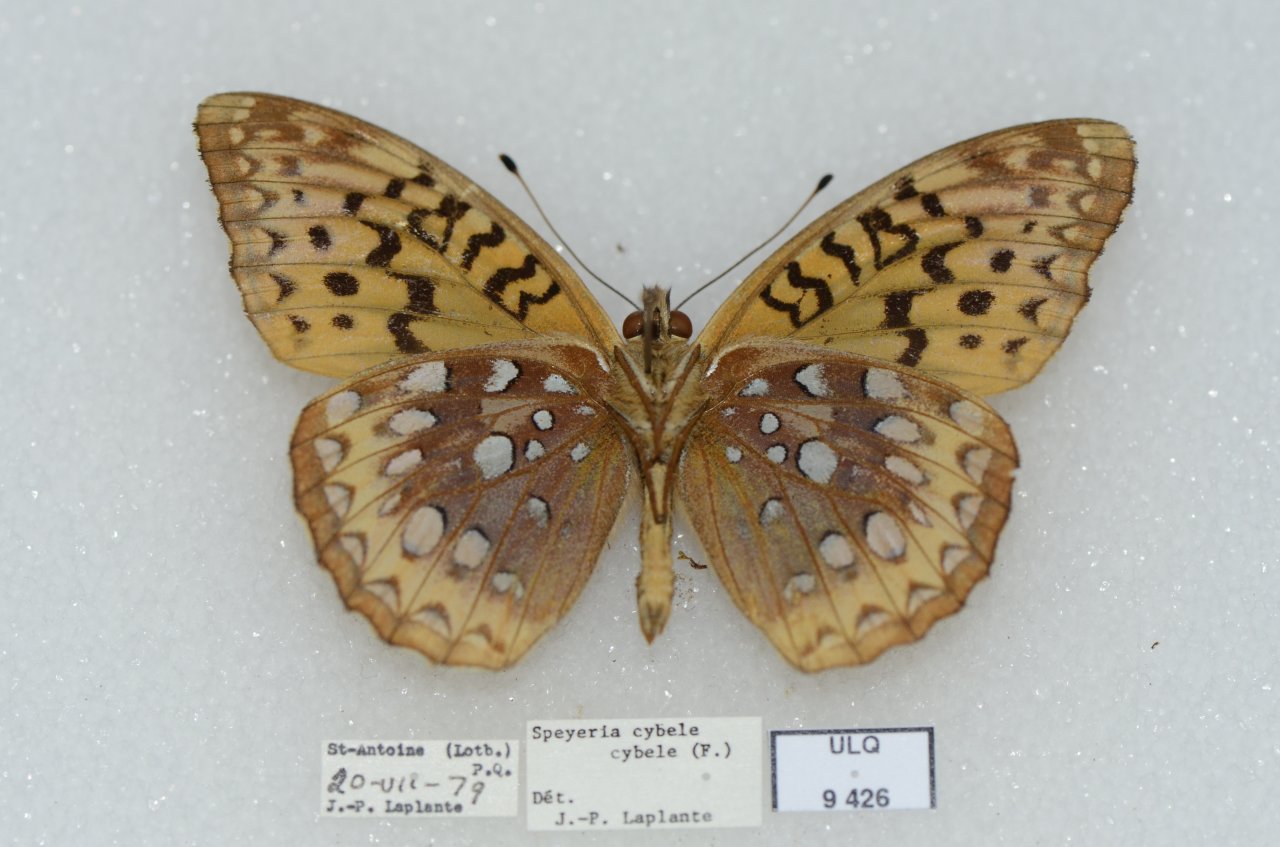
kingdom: Animalia
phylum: Arthropoda
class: Insecta
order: Lepidoptera
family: Nymphalidae
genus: Speyeria
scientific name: Speyeria cybele
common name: Great Spangled Fritillary
